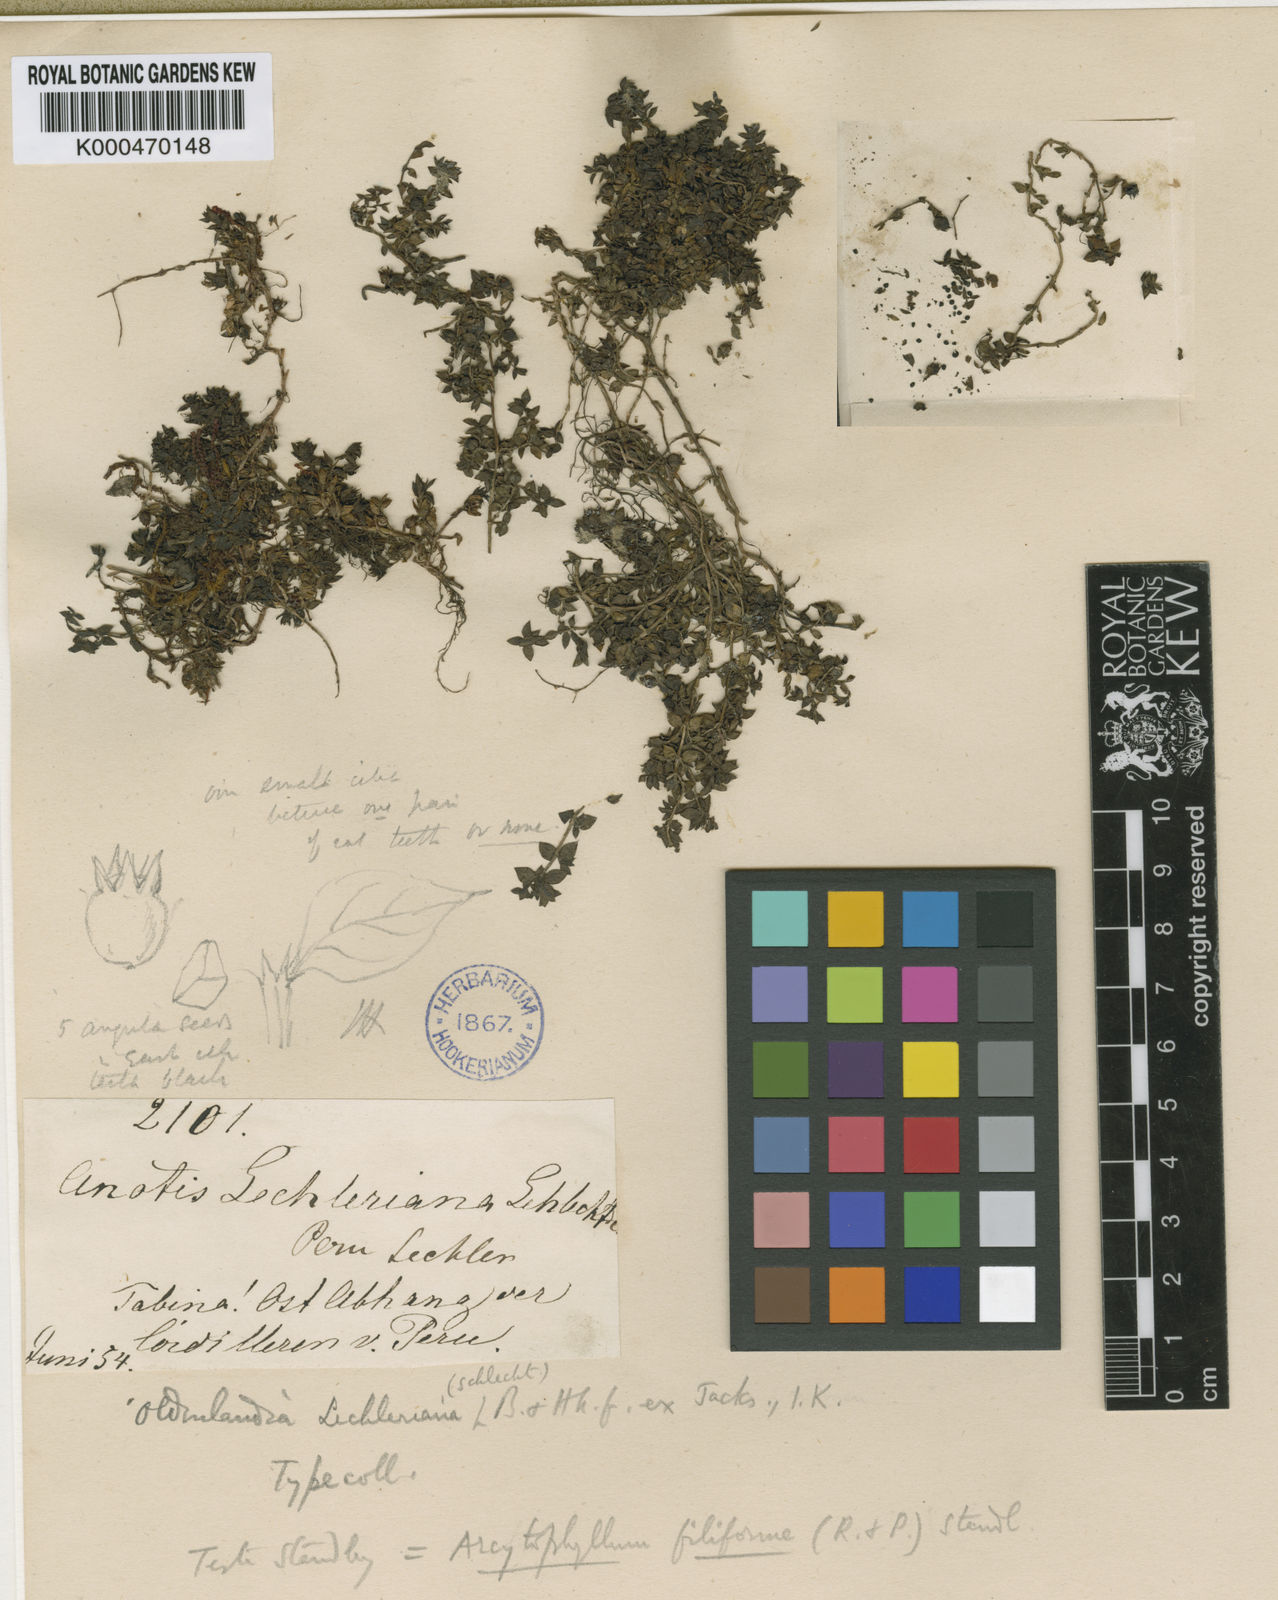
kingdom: Plantae
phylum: Tracheophyta
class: Magnoliopsida
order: Gentianales
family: Rubiaceae
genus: Arcytophyllum
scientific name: Arcytophyllum filiforme
